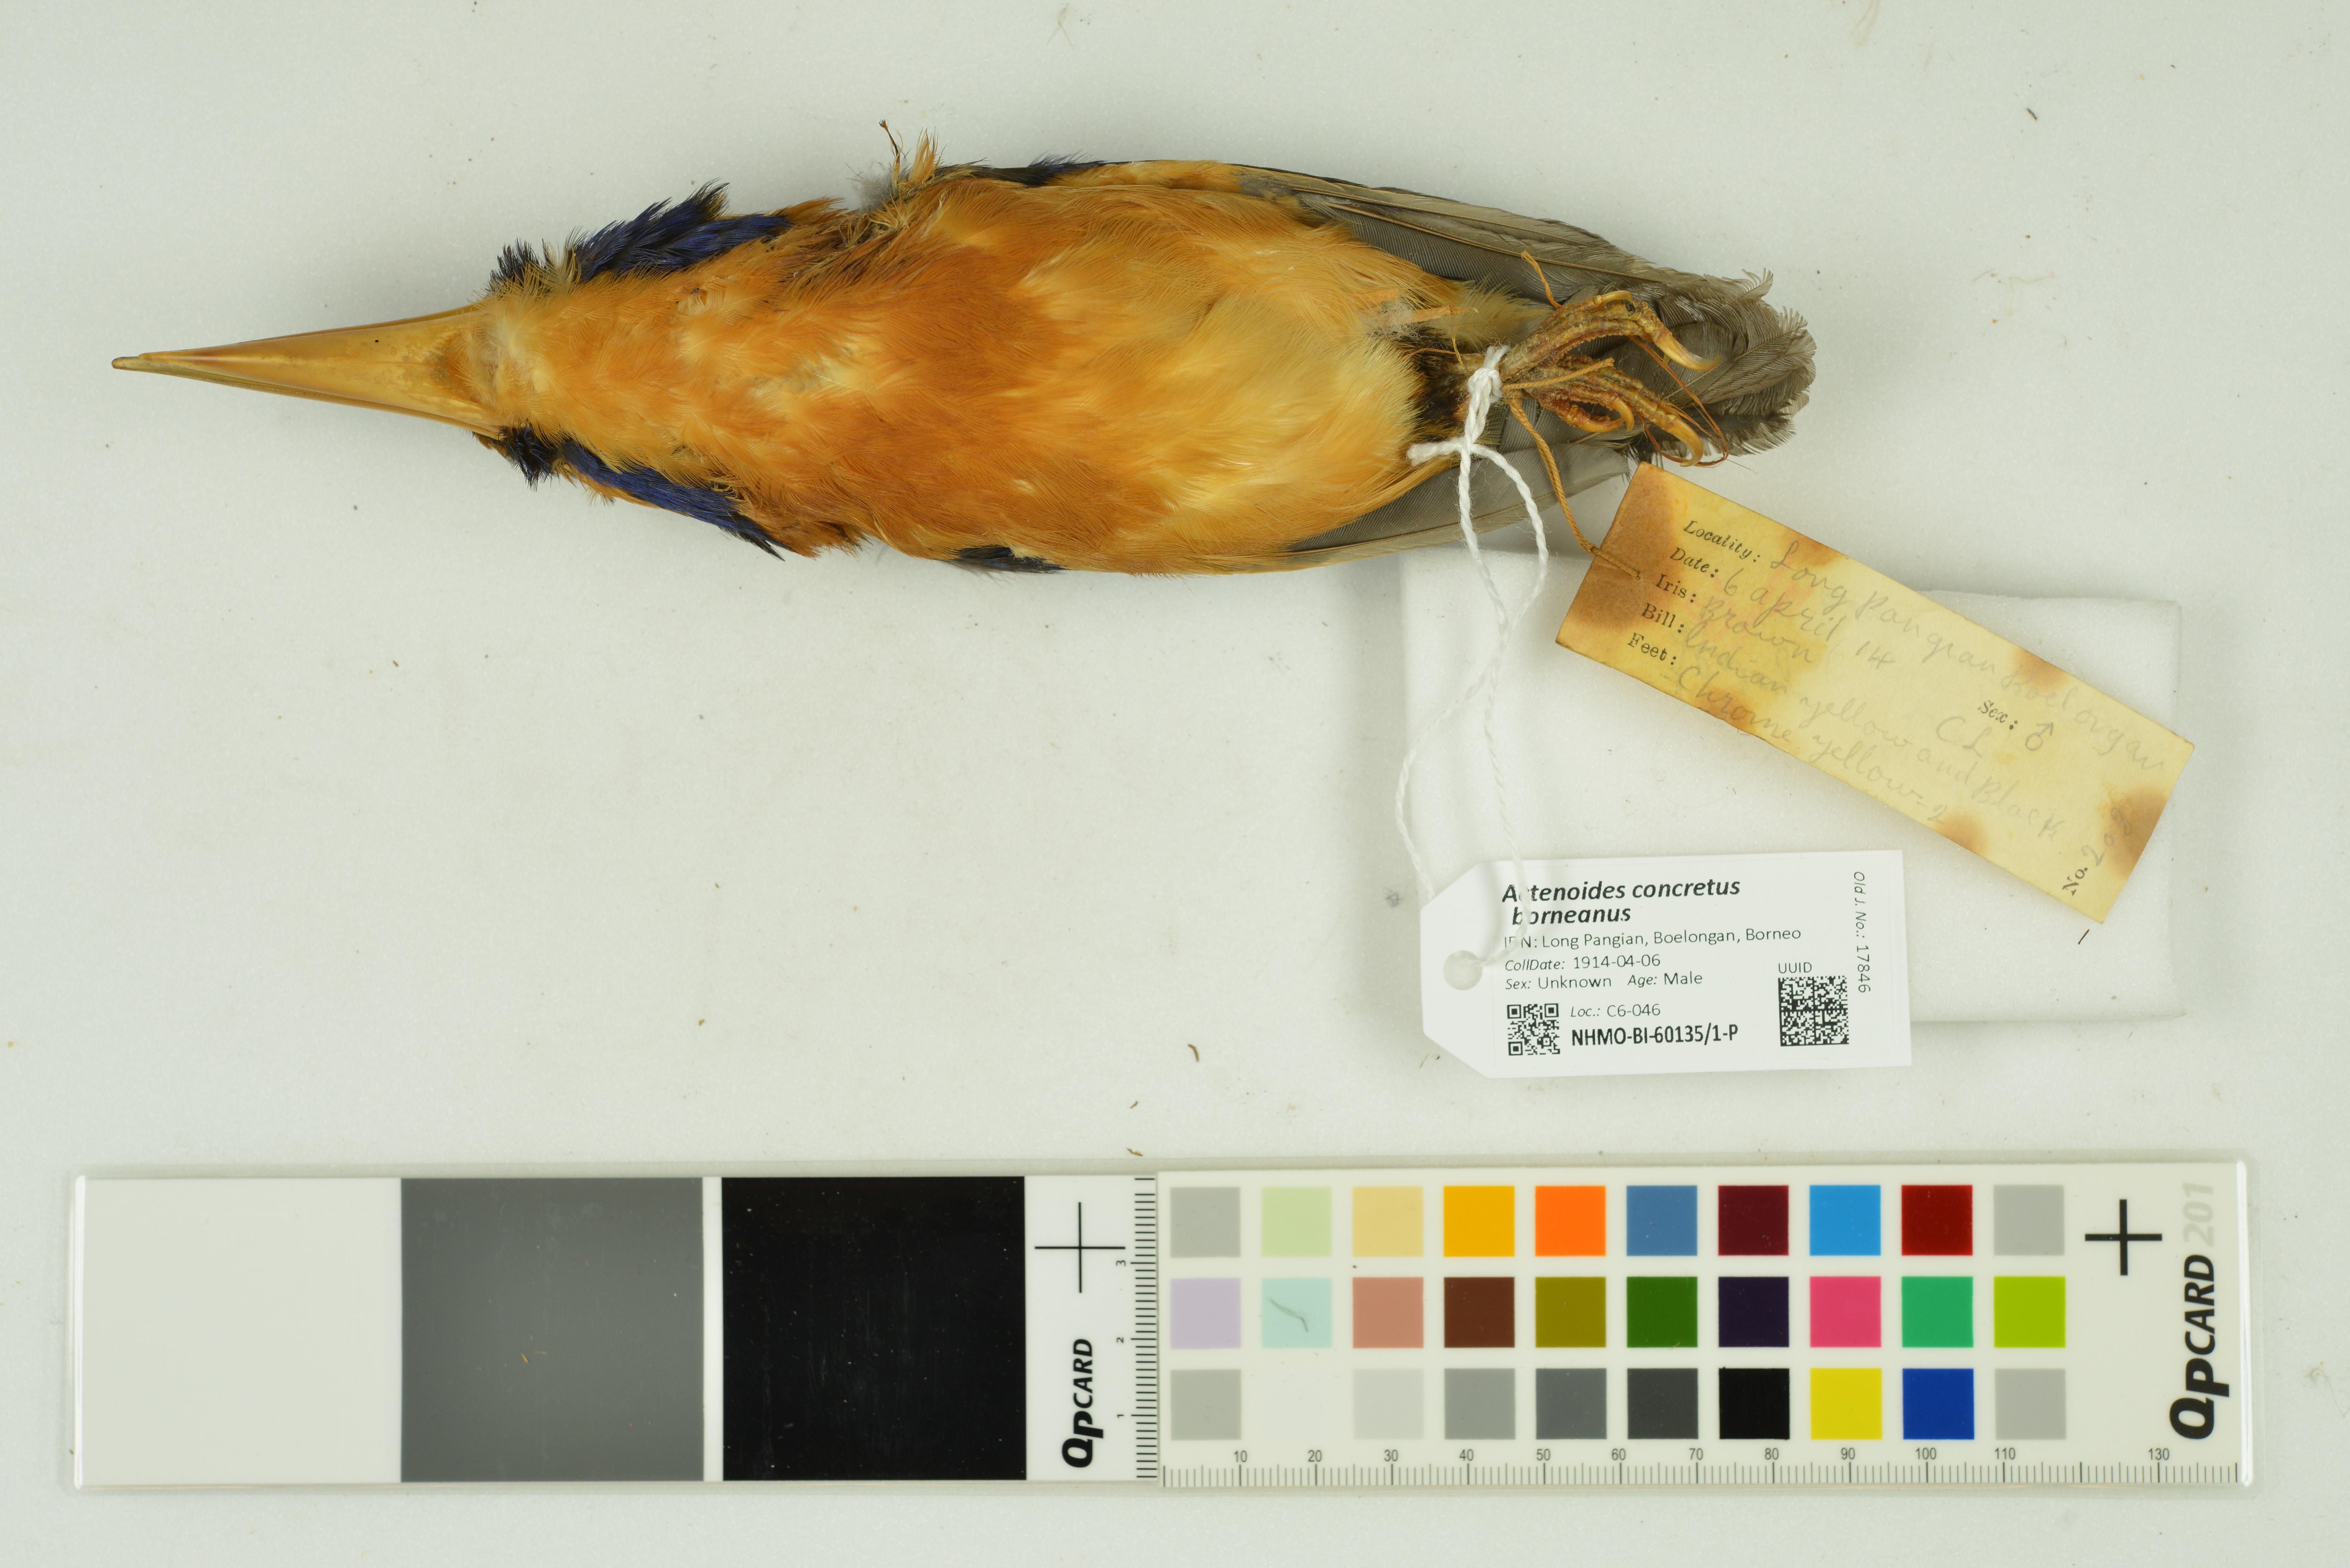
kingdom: Animalia
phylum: Chordata
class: Aves
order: Coraciiformes
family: Alcedinidae
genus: Actenoides
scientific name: Actenoides concretus
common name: Rufous-collared kingfisher
